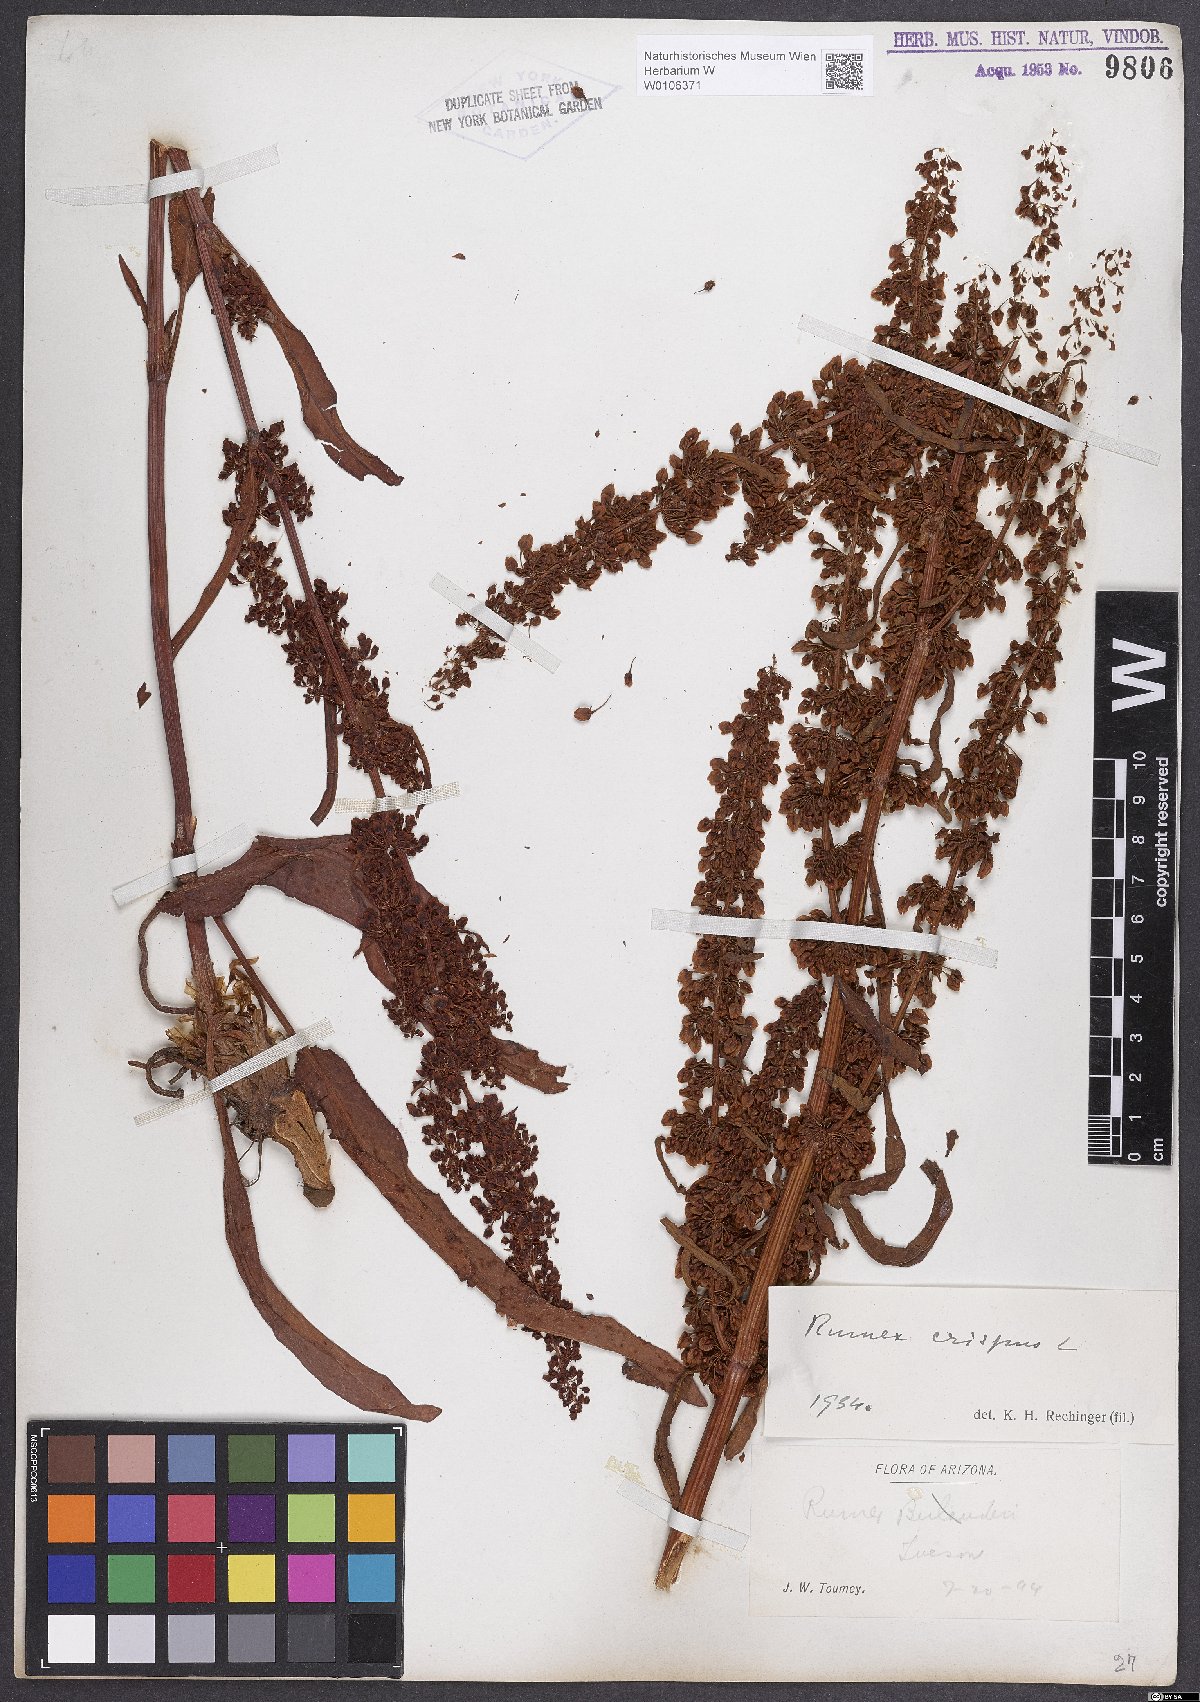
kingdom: Plantae
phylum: Tracheophyta
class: Magnoliopsida
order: Caryophyllales
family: Polygonaceae
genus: Rumex
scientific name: Rumex crispus
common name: Curled dock
